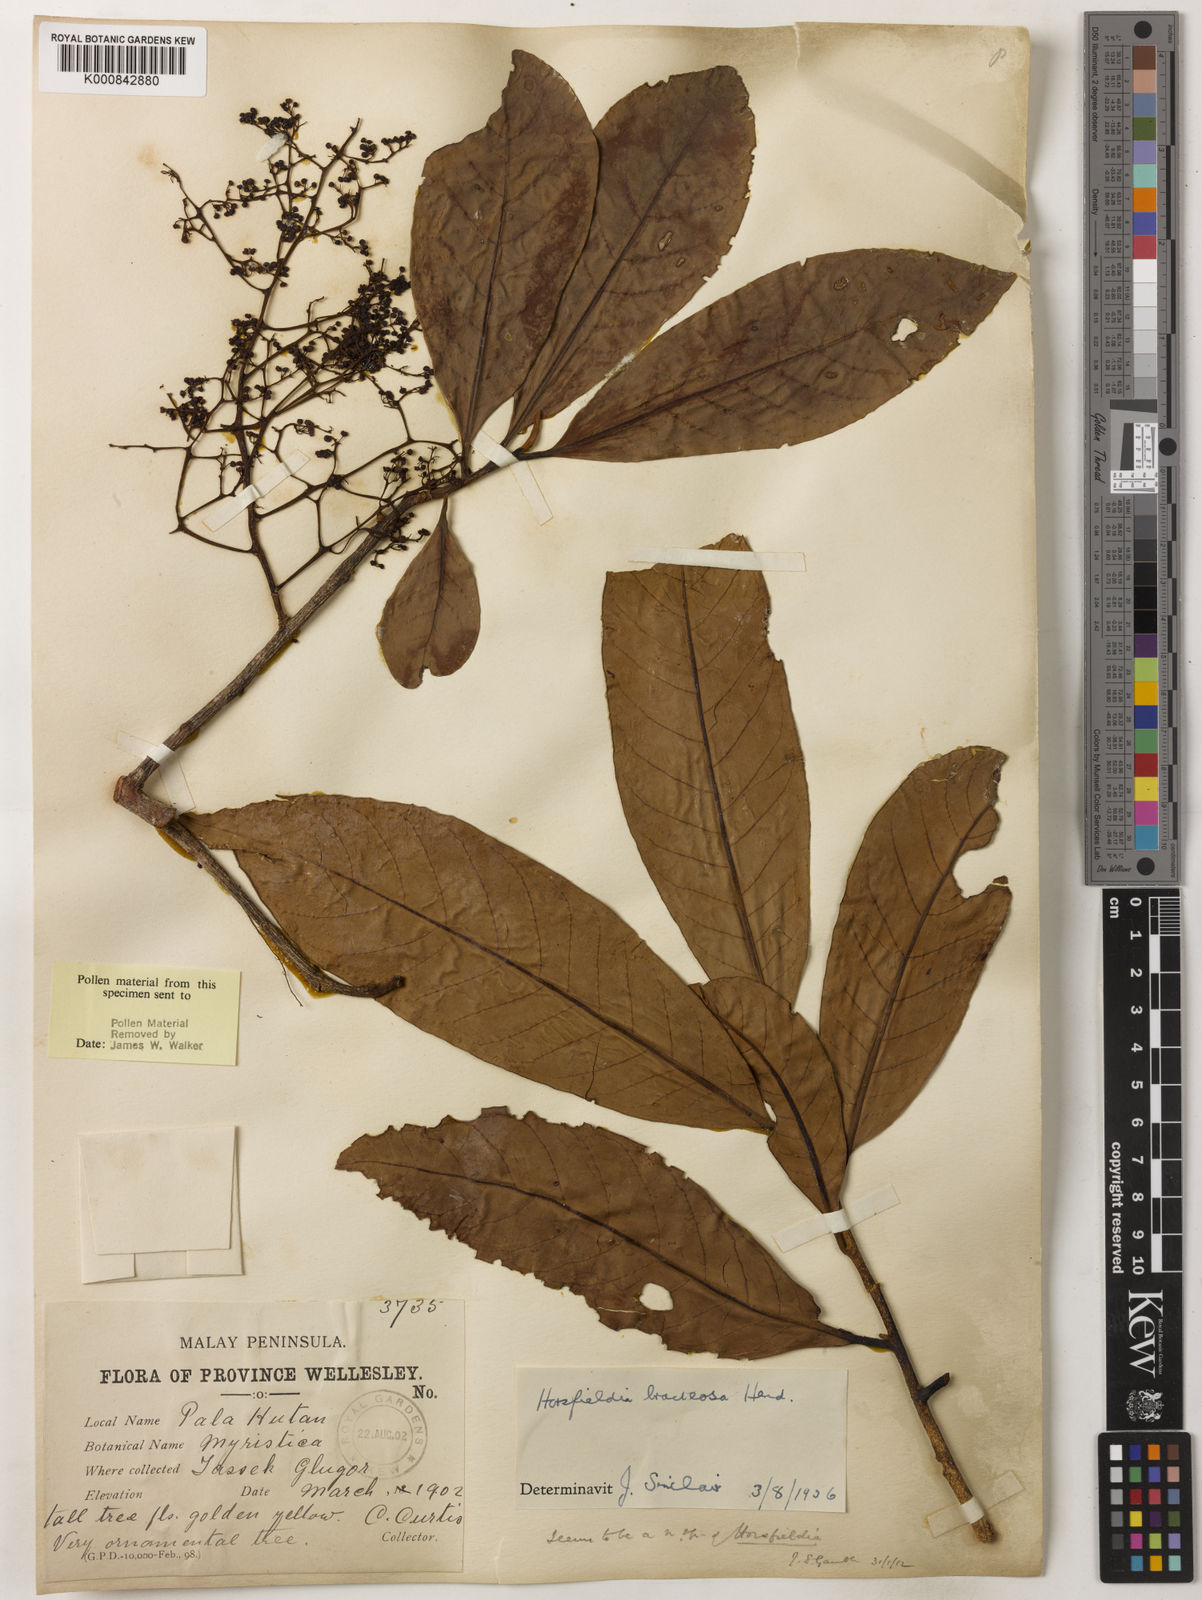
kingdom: Plantae
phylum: Tracheophyta
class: Magnoliopsida
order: Magnoliales
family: Myristicaceae
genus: Horsfieldia
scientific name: Horsfieldia sucosa
